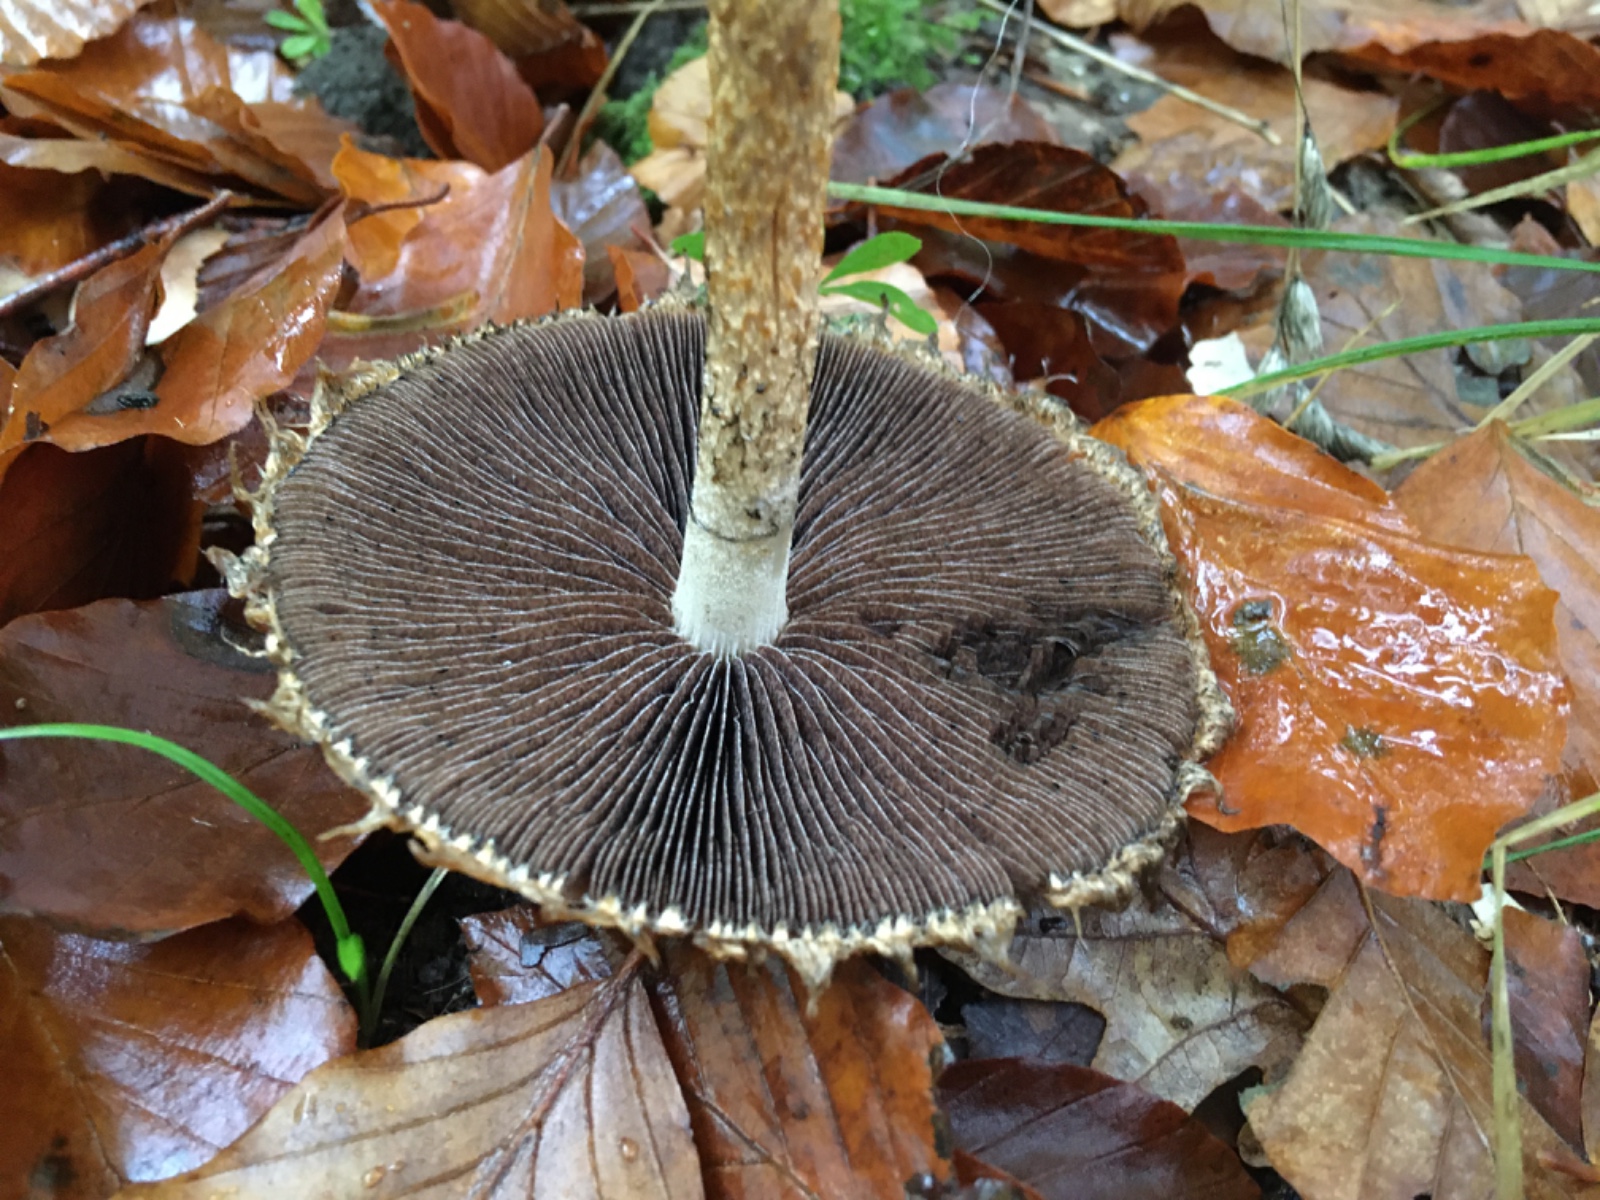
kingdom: Fungi
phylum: Basidiomycota
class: Agaricomycetes
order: Agaricales
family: Psathyrellaceae
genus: Lacrymaria
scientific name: Lacrymaria lacrymabunda
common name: grædende mørkhat
